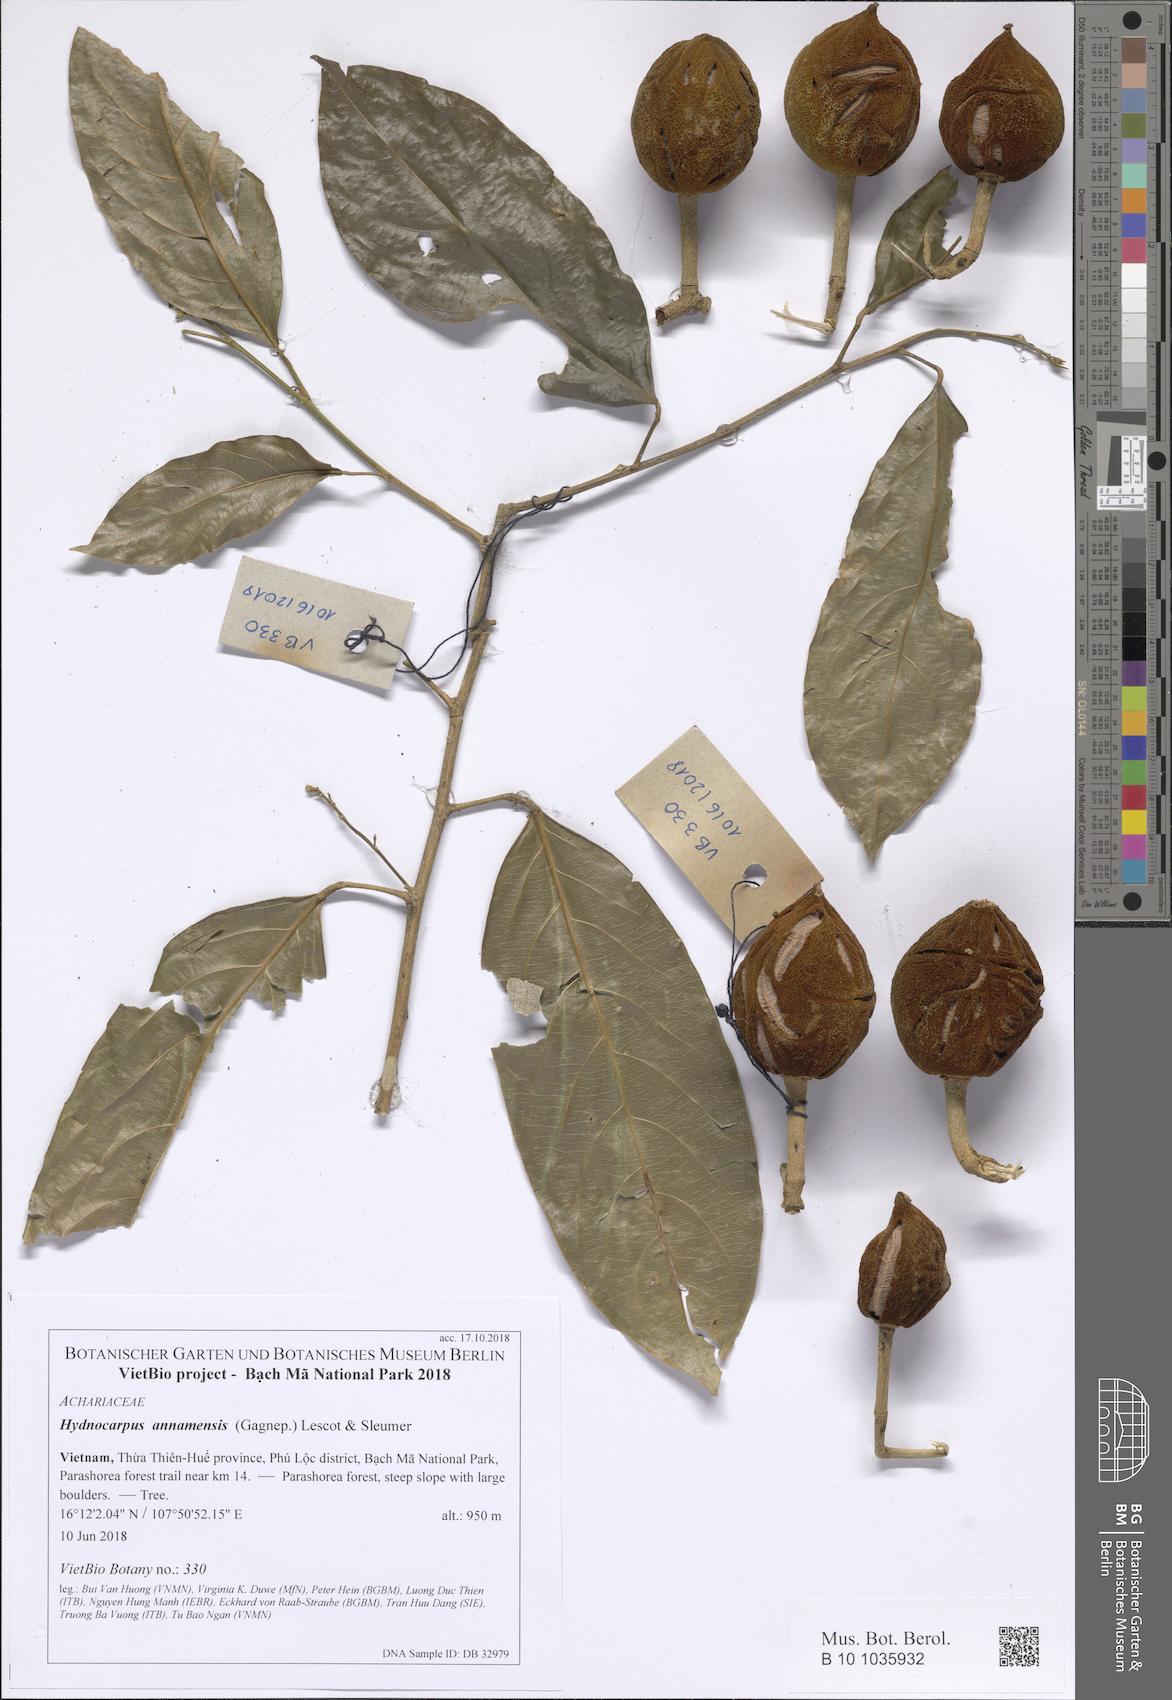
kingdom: Plantae
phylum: Tracheophyta
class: Magnoliopsida
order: Malpighiales
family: Achariaceae
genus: Hydnocarpus
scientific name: Hydnocarpus annamensis
